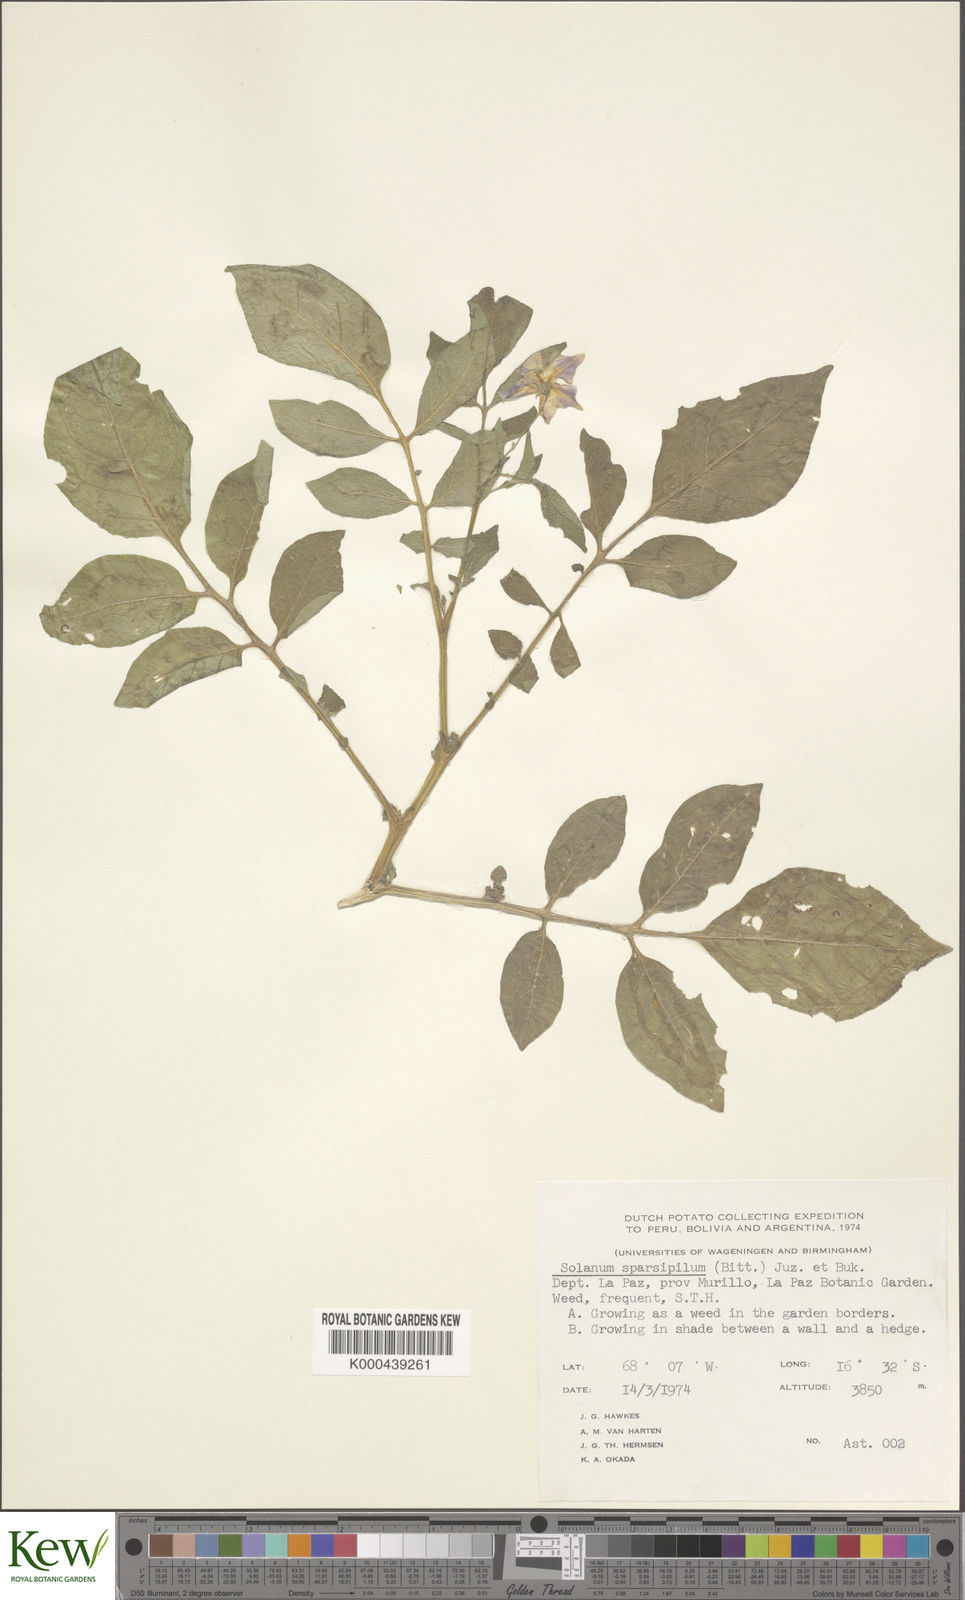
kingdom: Plantae
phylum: Tracheophyta
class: Magnoliopsida
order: Solanales
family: Solanaceae
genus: Solanum
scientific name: Solanum brevicaule
